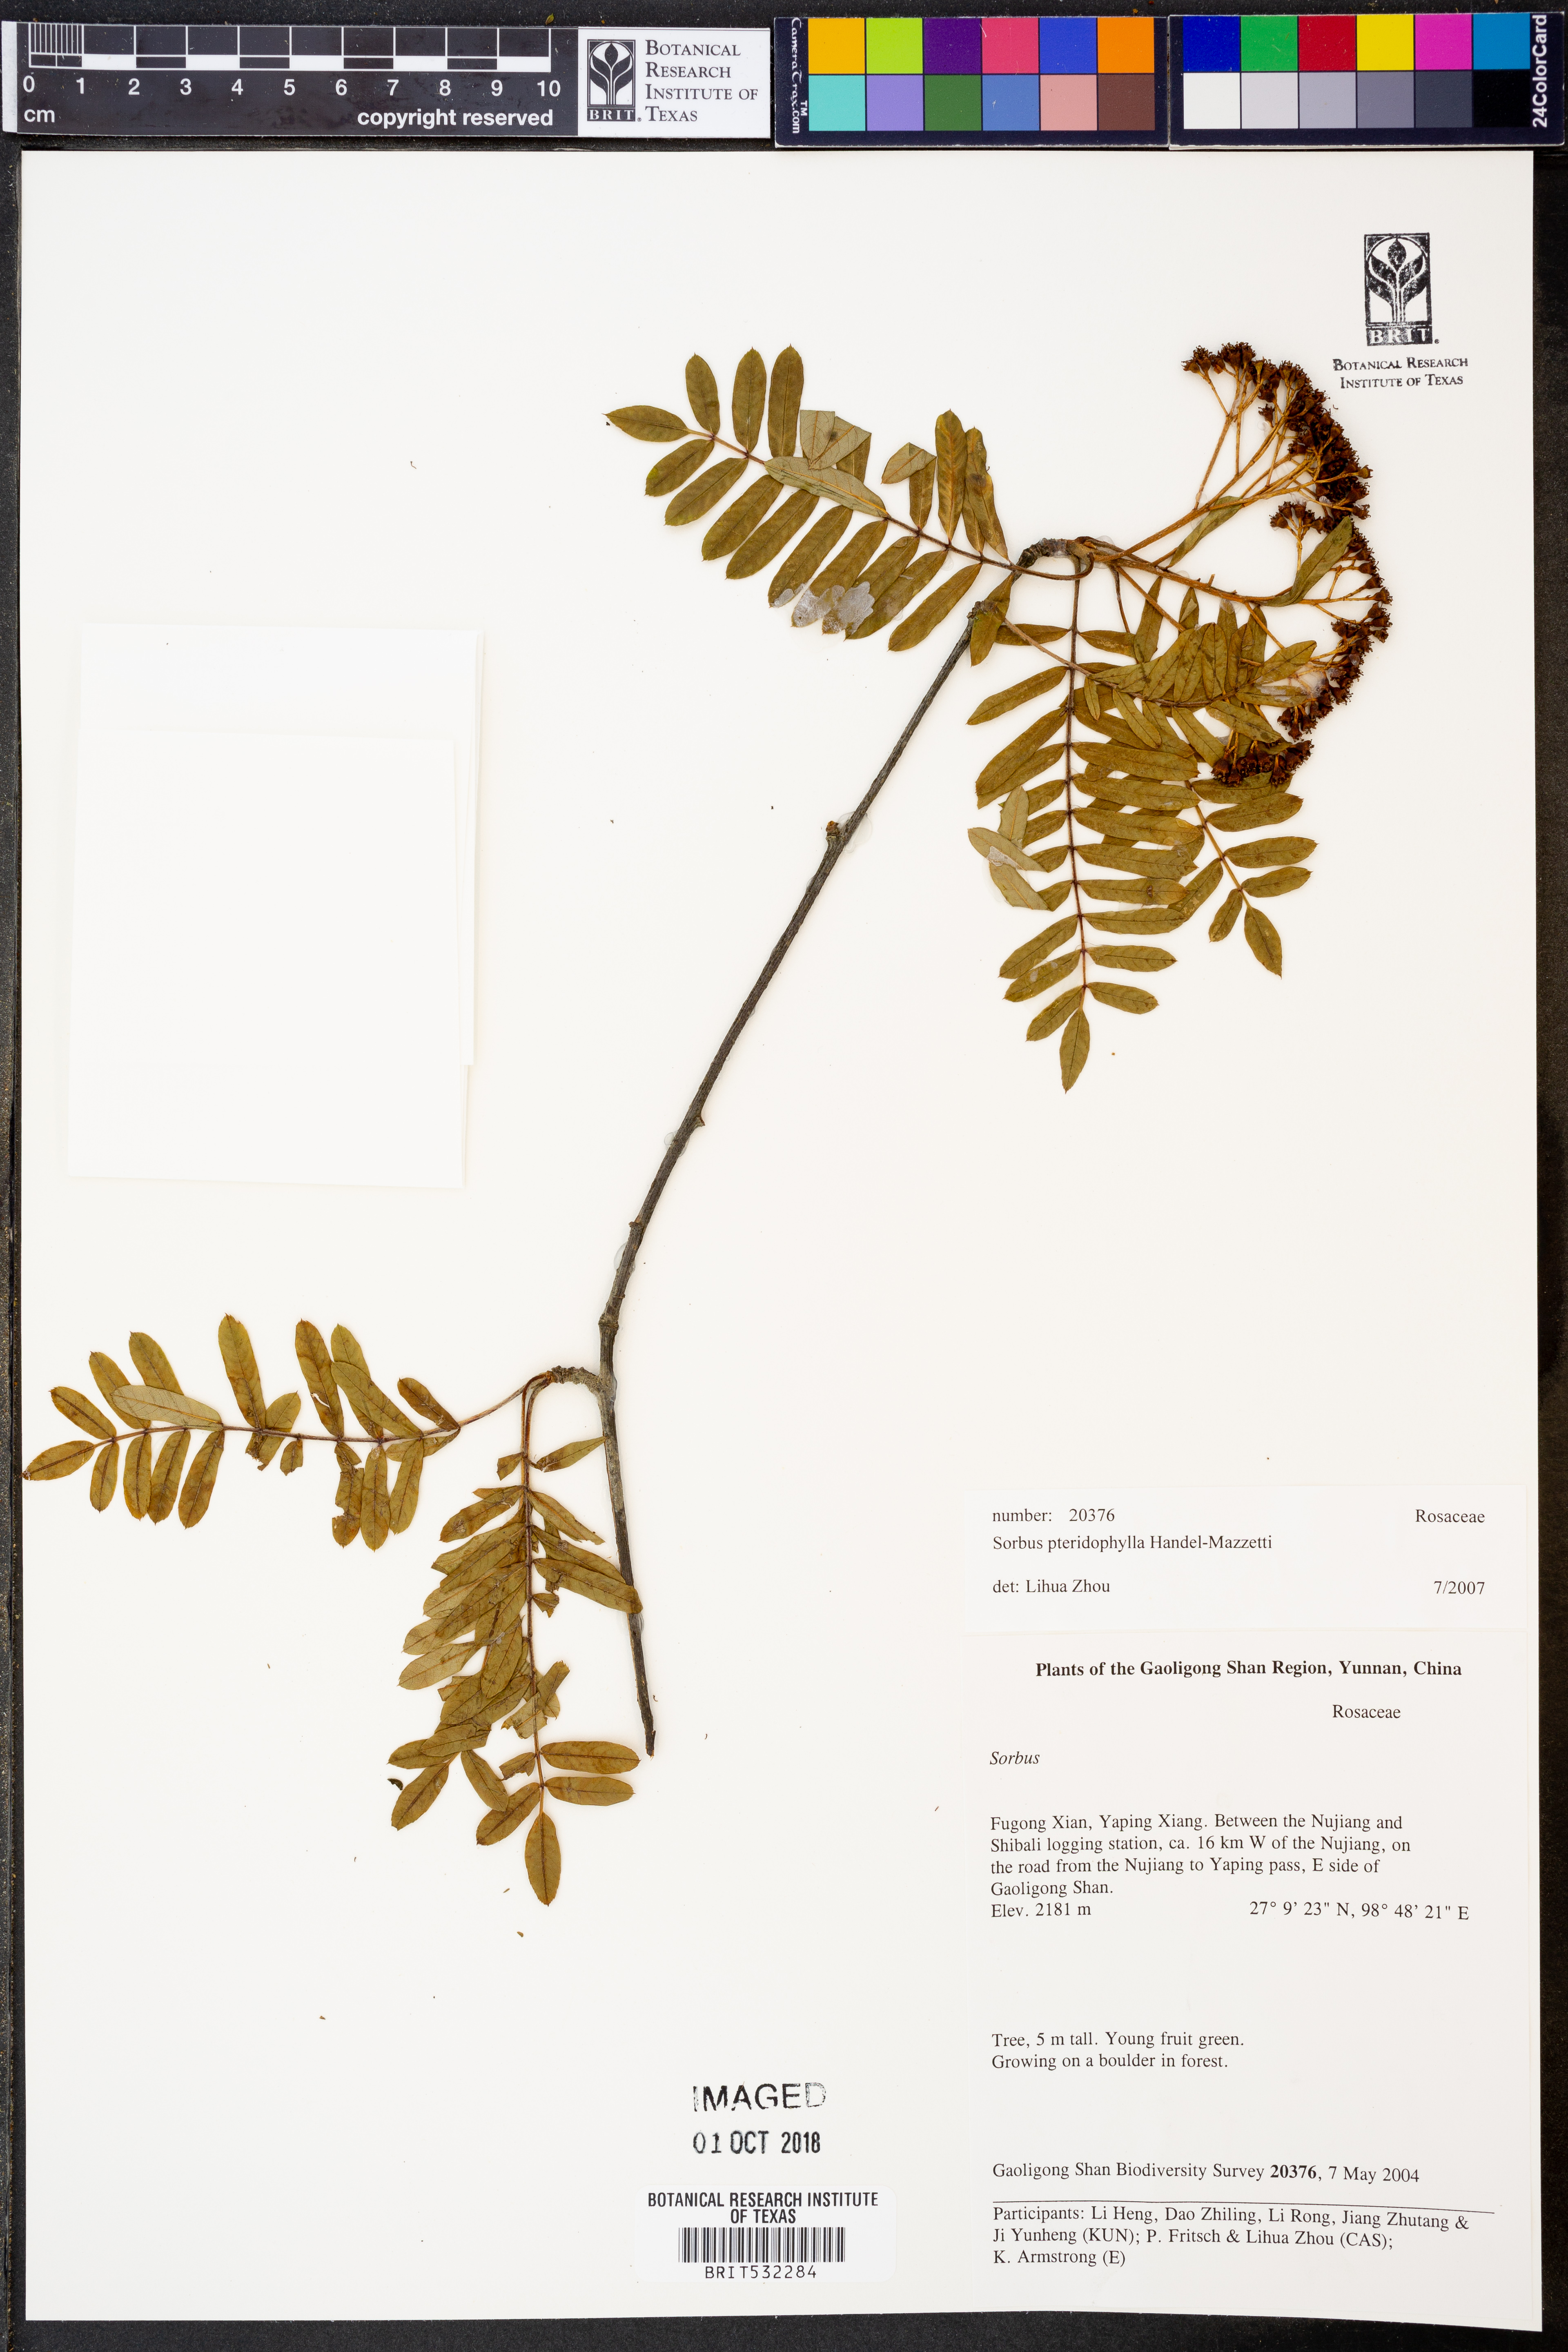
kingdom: Plantae
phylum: Tracheophyta
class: Magnoliopsida
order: Rosales
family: Rosaceae
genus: Sorbus
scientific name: Sorbus glomerulata
